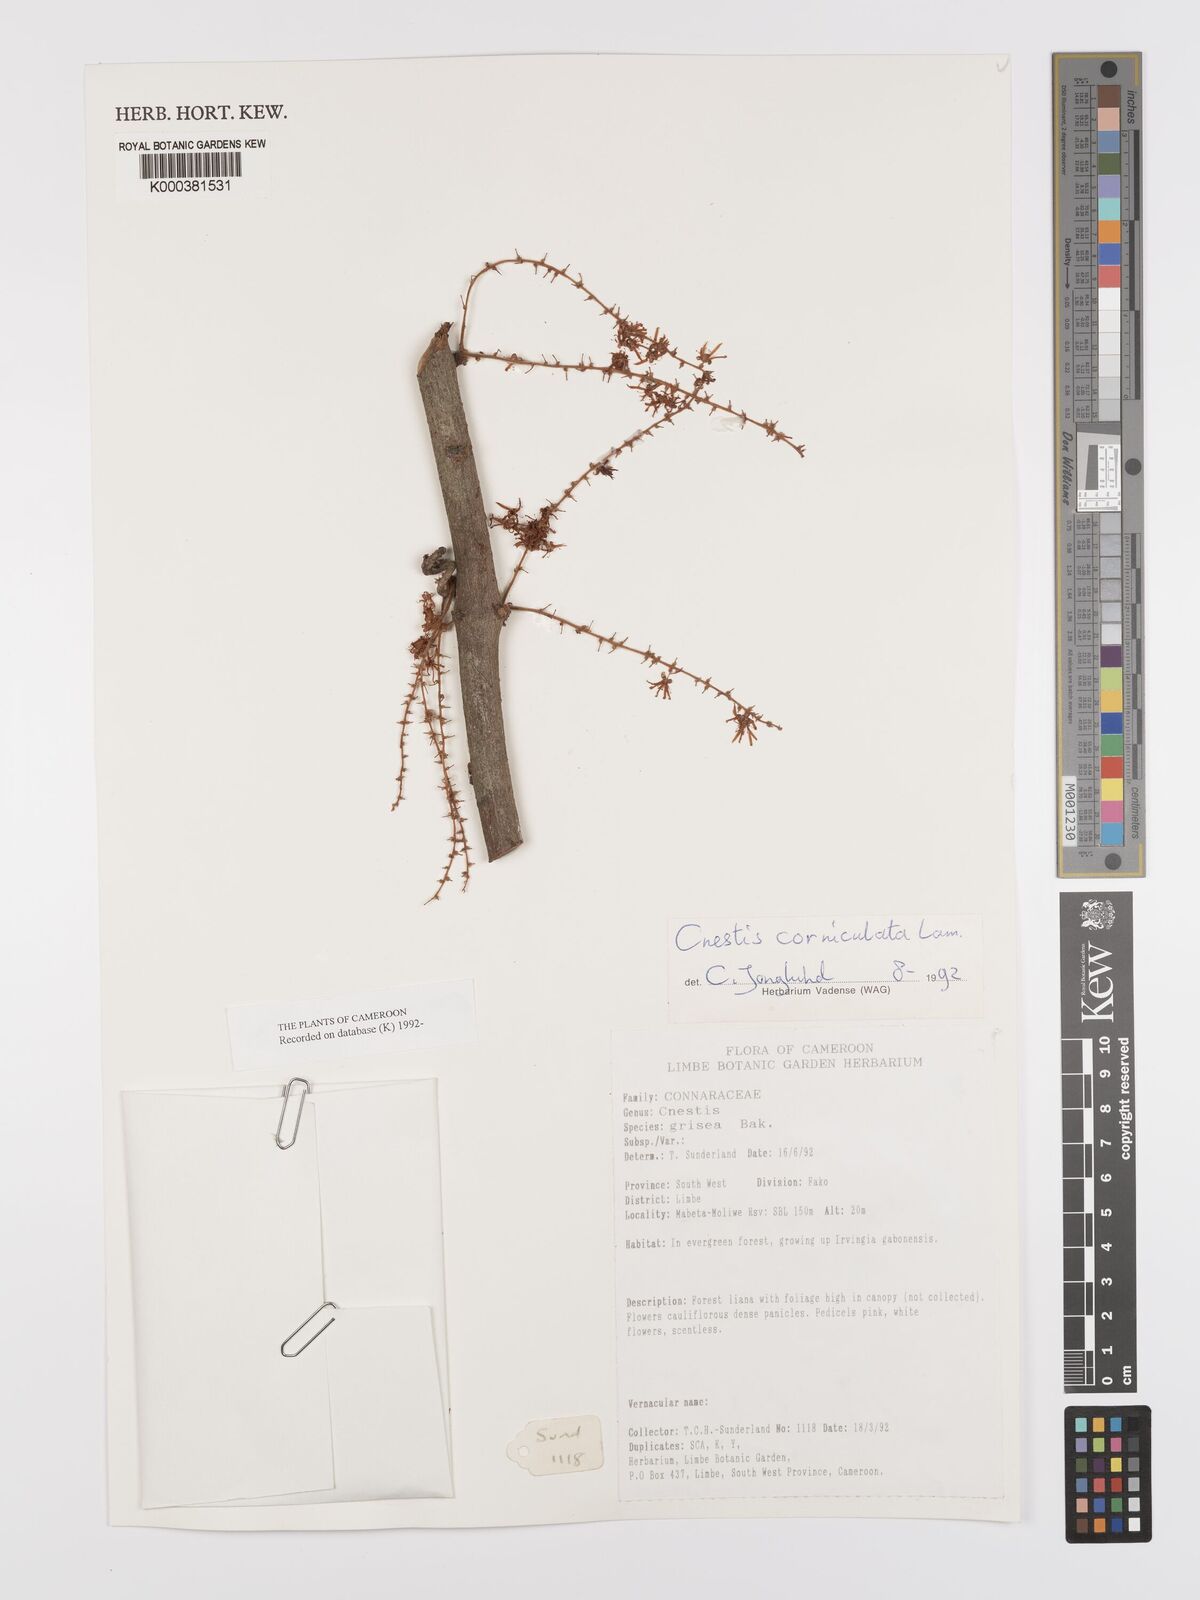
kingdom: Plantae
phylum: Tracheophyta
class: Magnoliopsida
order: Oxalidales
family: Connaraceae
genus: Cnestis
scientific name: Cnestis corniculata
